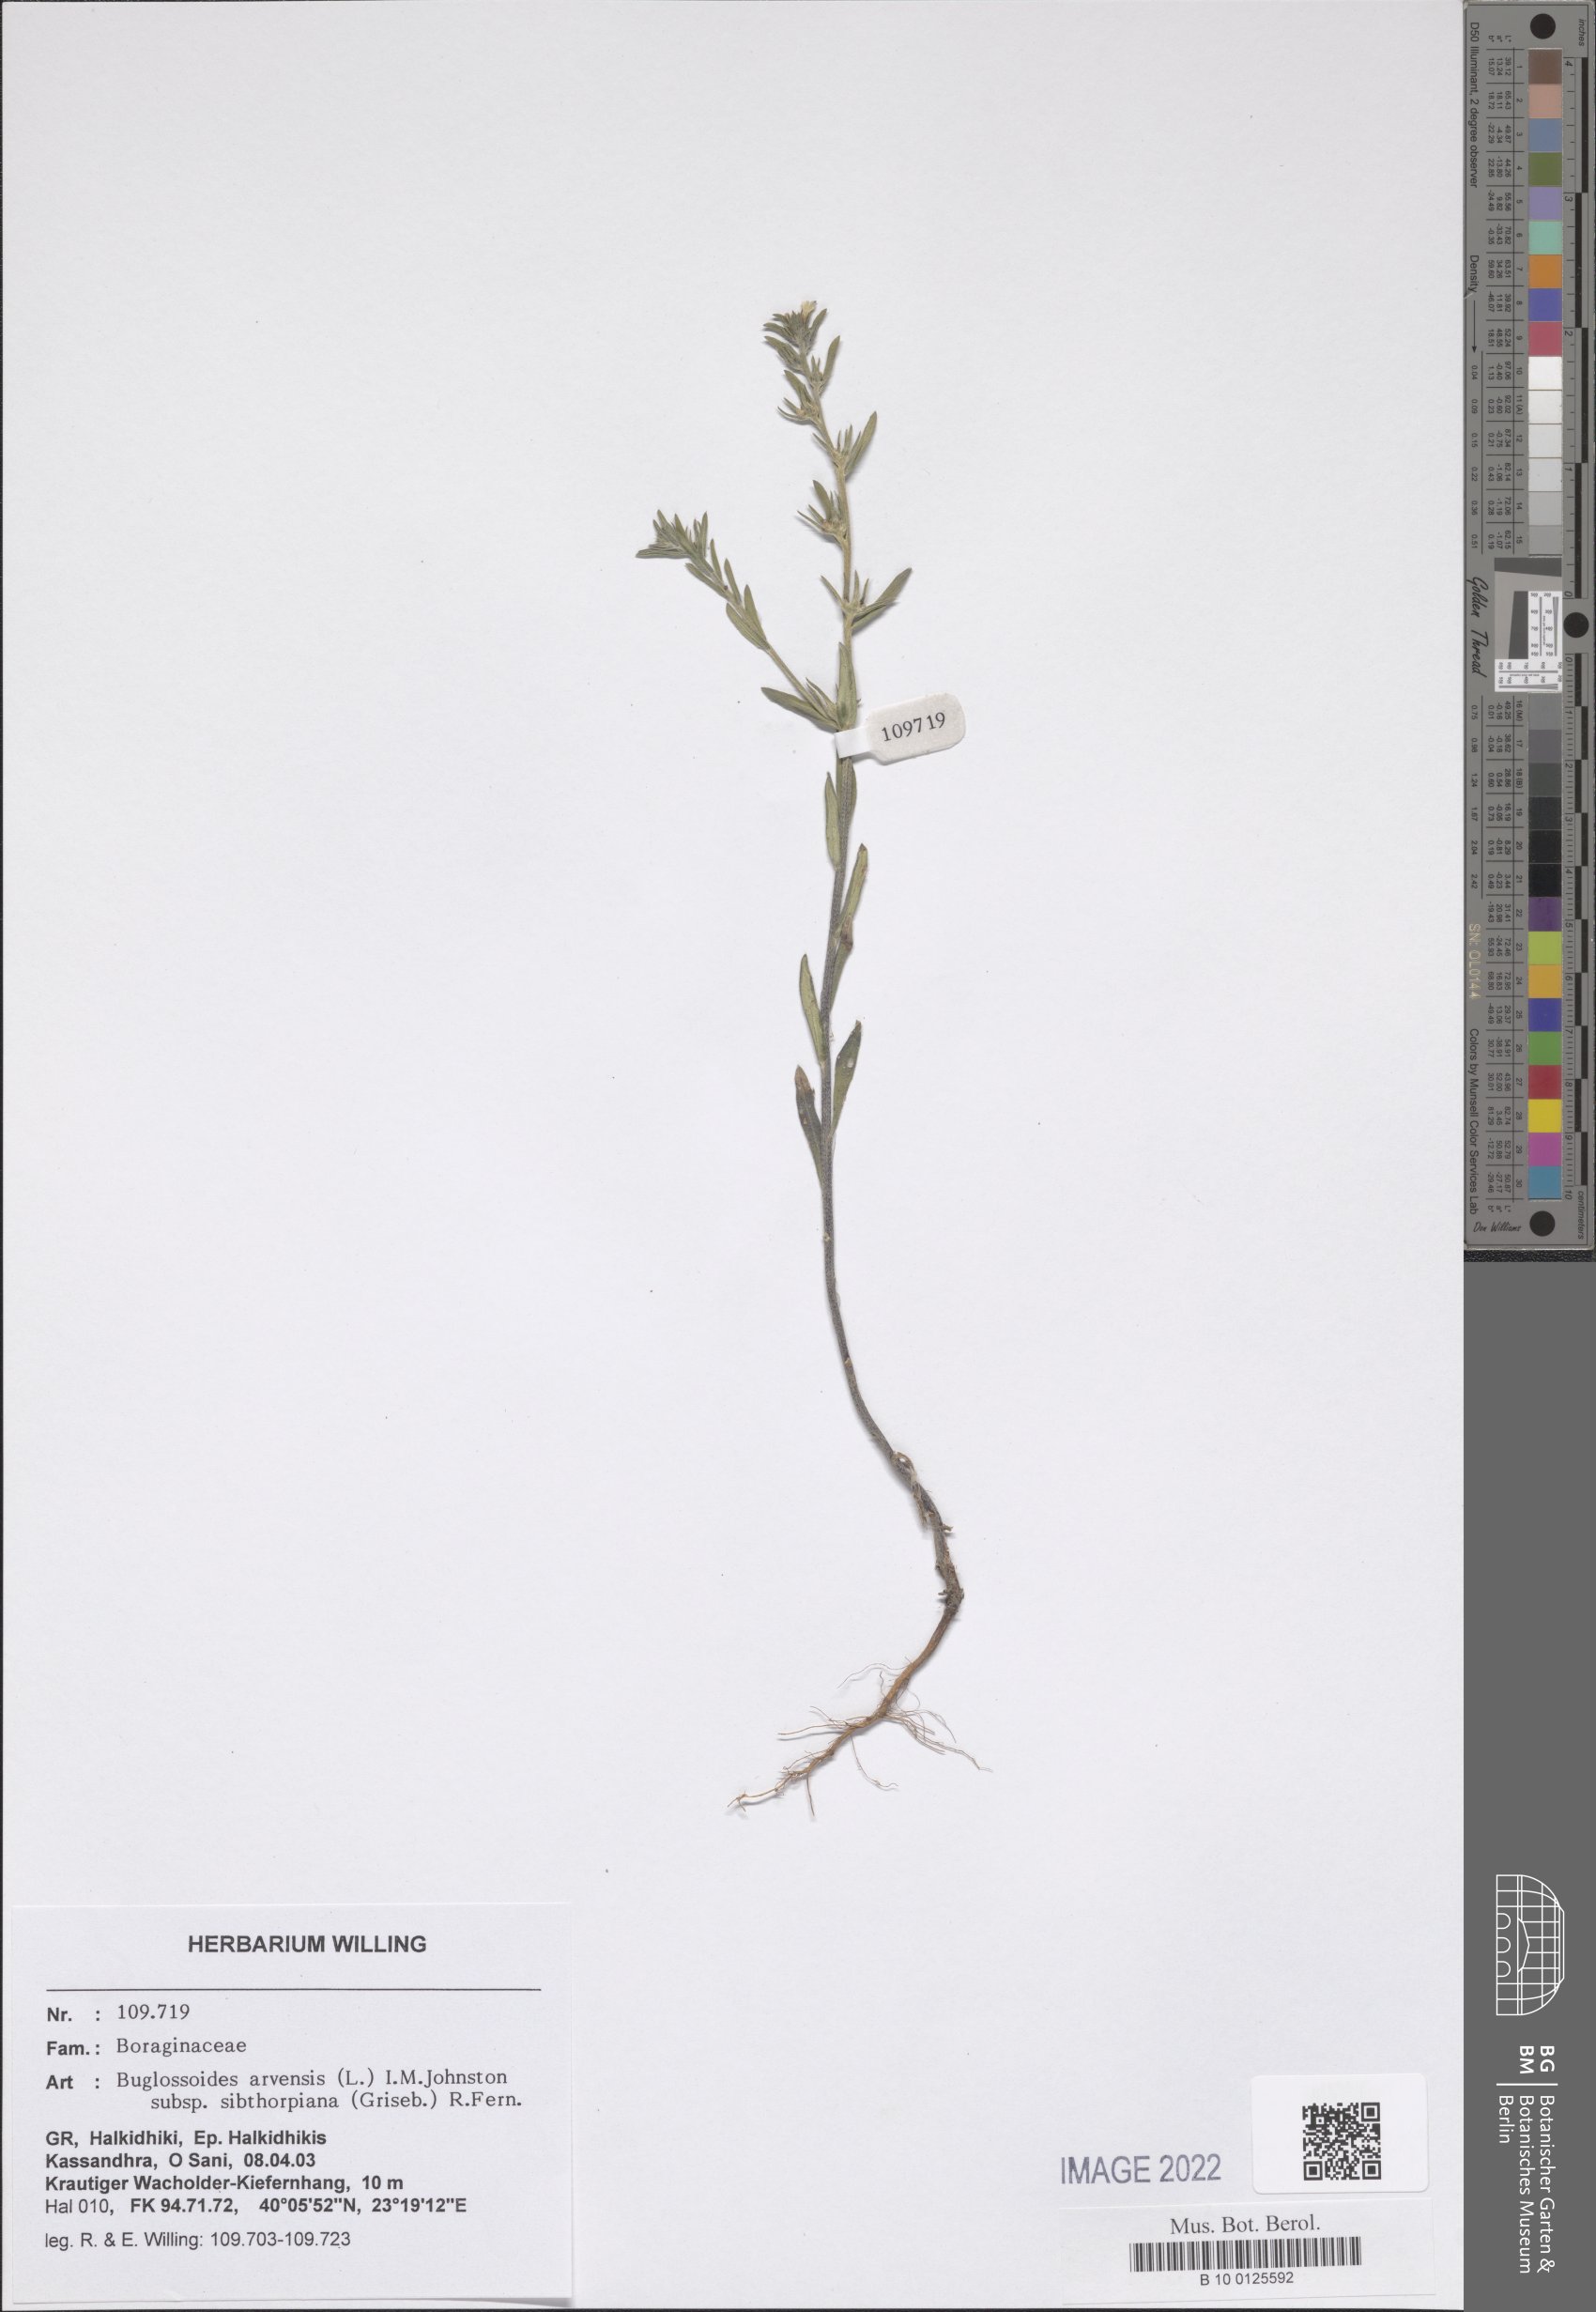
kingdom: Plantae
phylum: Tracheophyta
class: Magnoliopsida
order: Boraginales
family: Boraginaceae
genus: Buglossoides
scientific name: Buglossoides arvensis
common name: Corn gromwell
